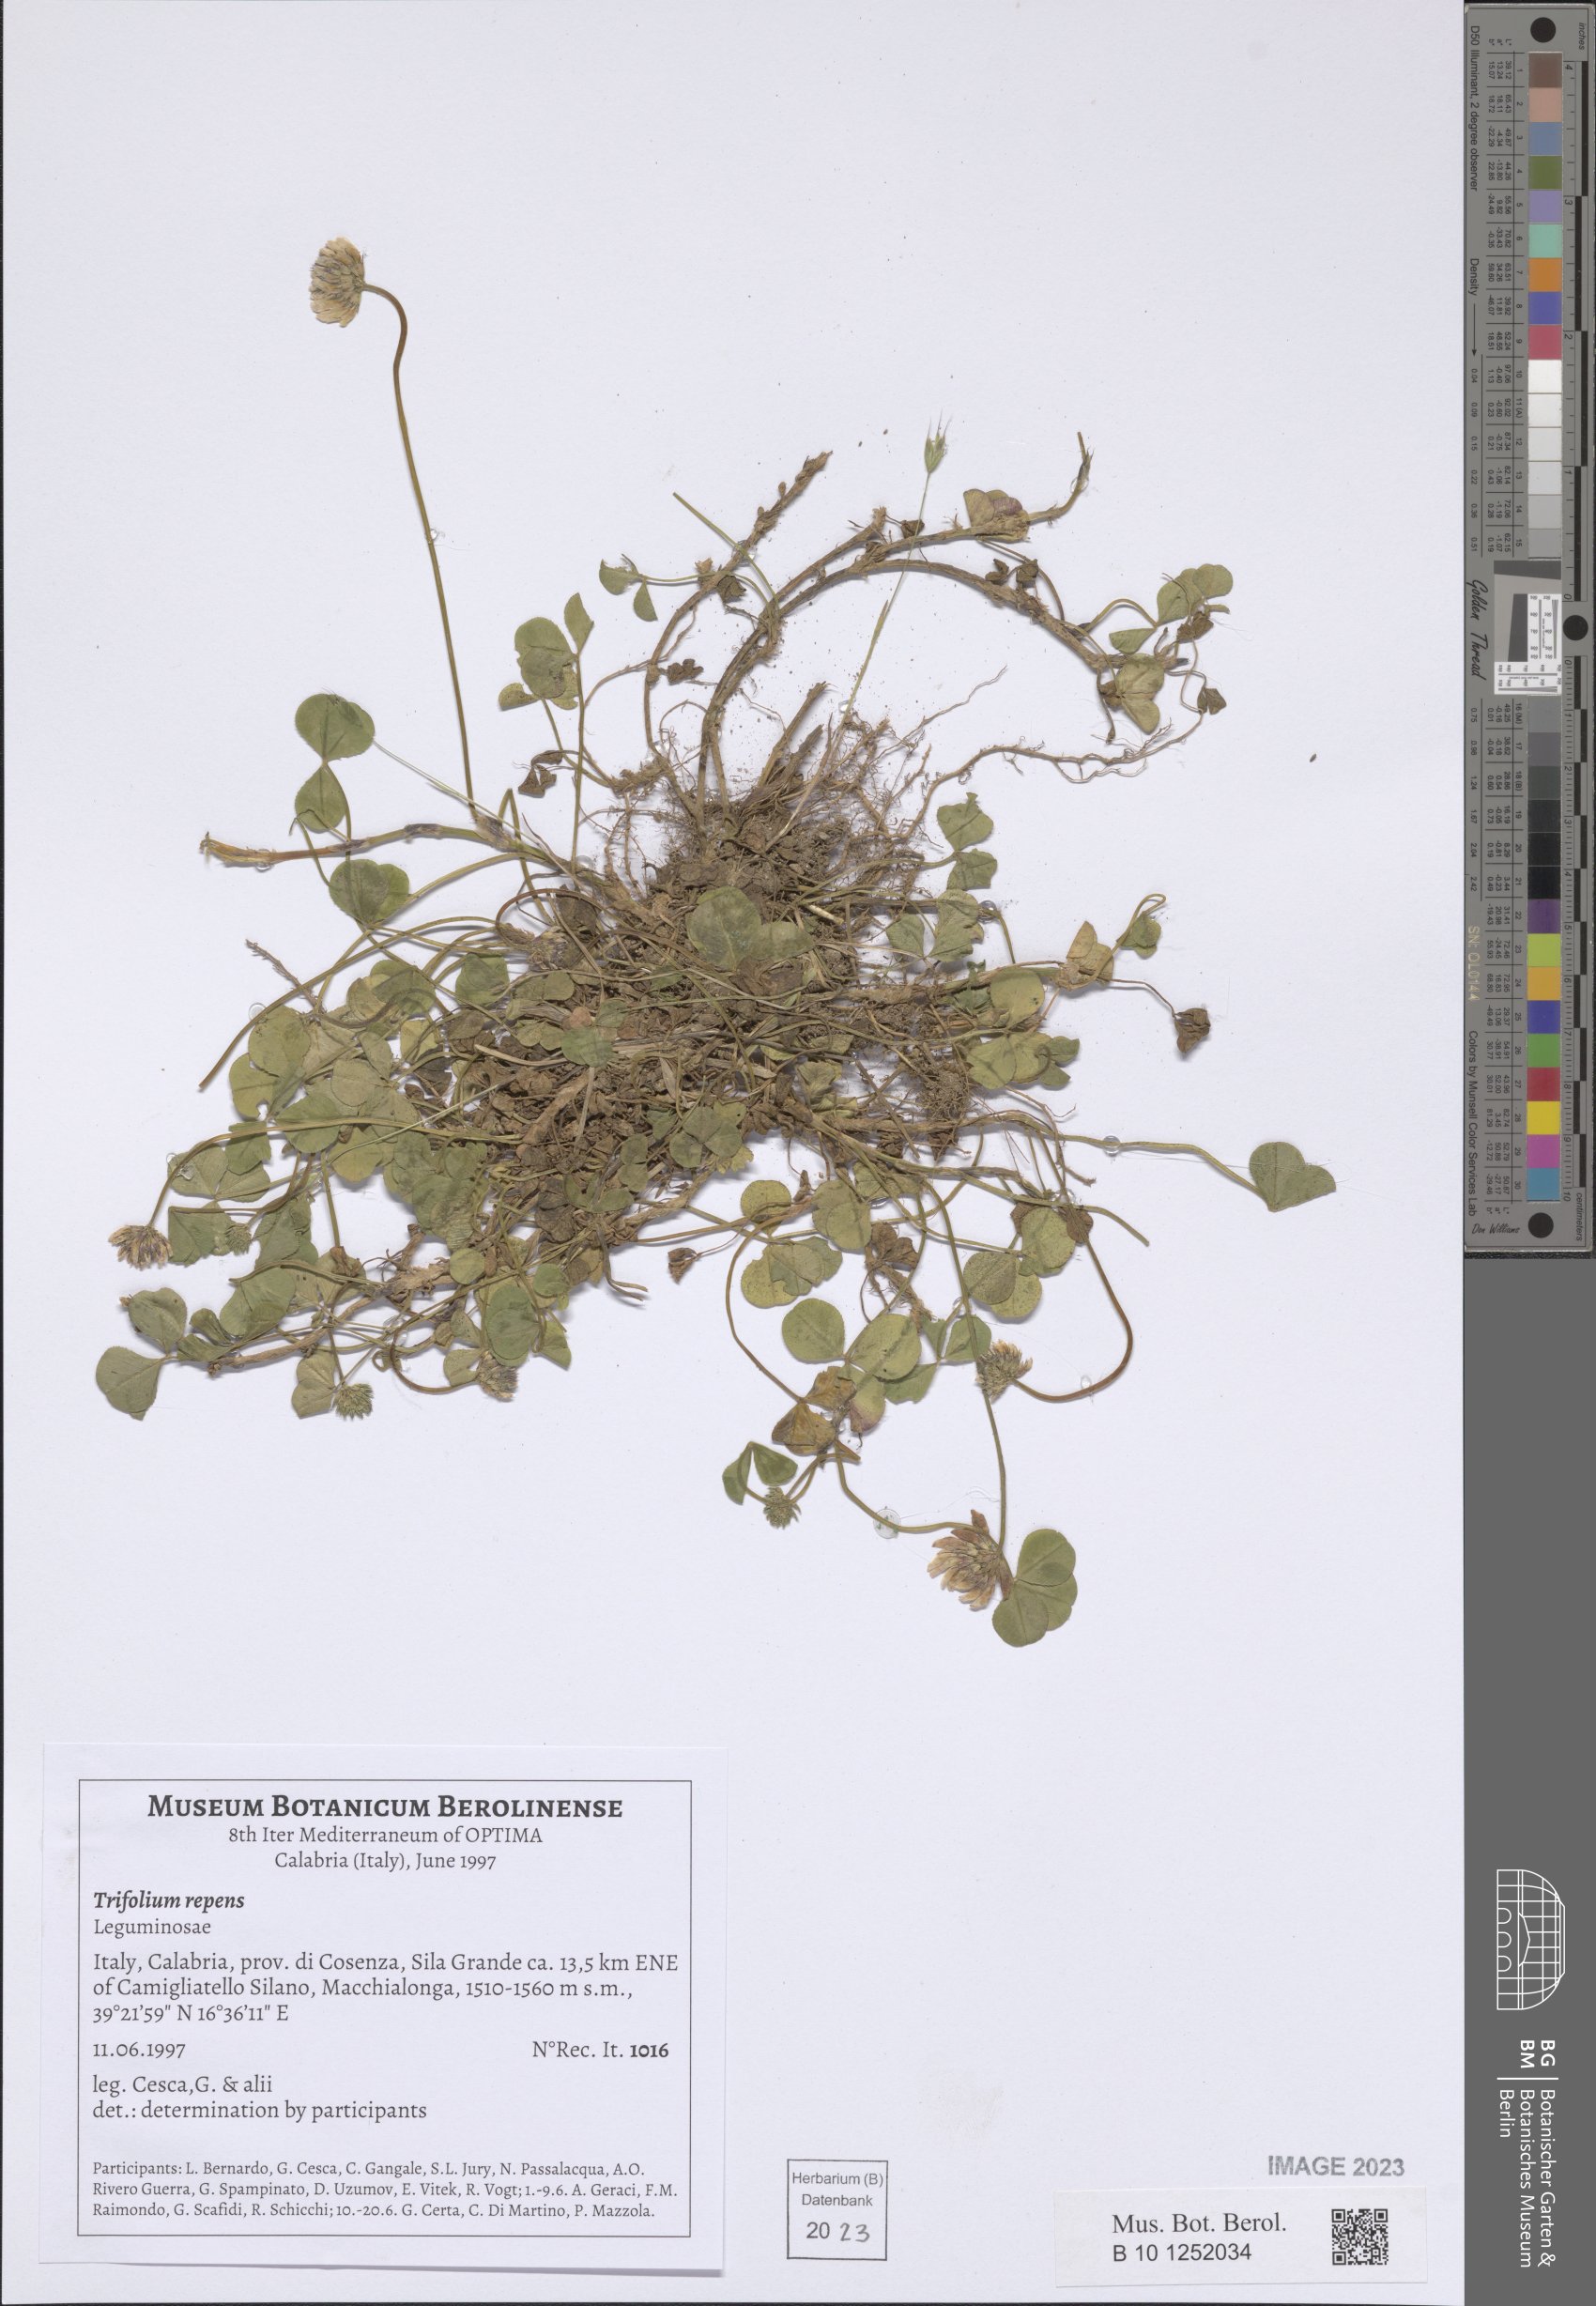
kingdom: Plantae
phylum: Tracheophyta
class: Magnoliopsida
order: Fabales
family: Fabaceae
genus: Trifolium
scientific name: Trifolium repens
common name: White clover
